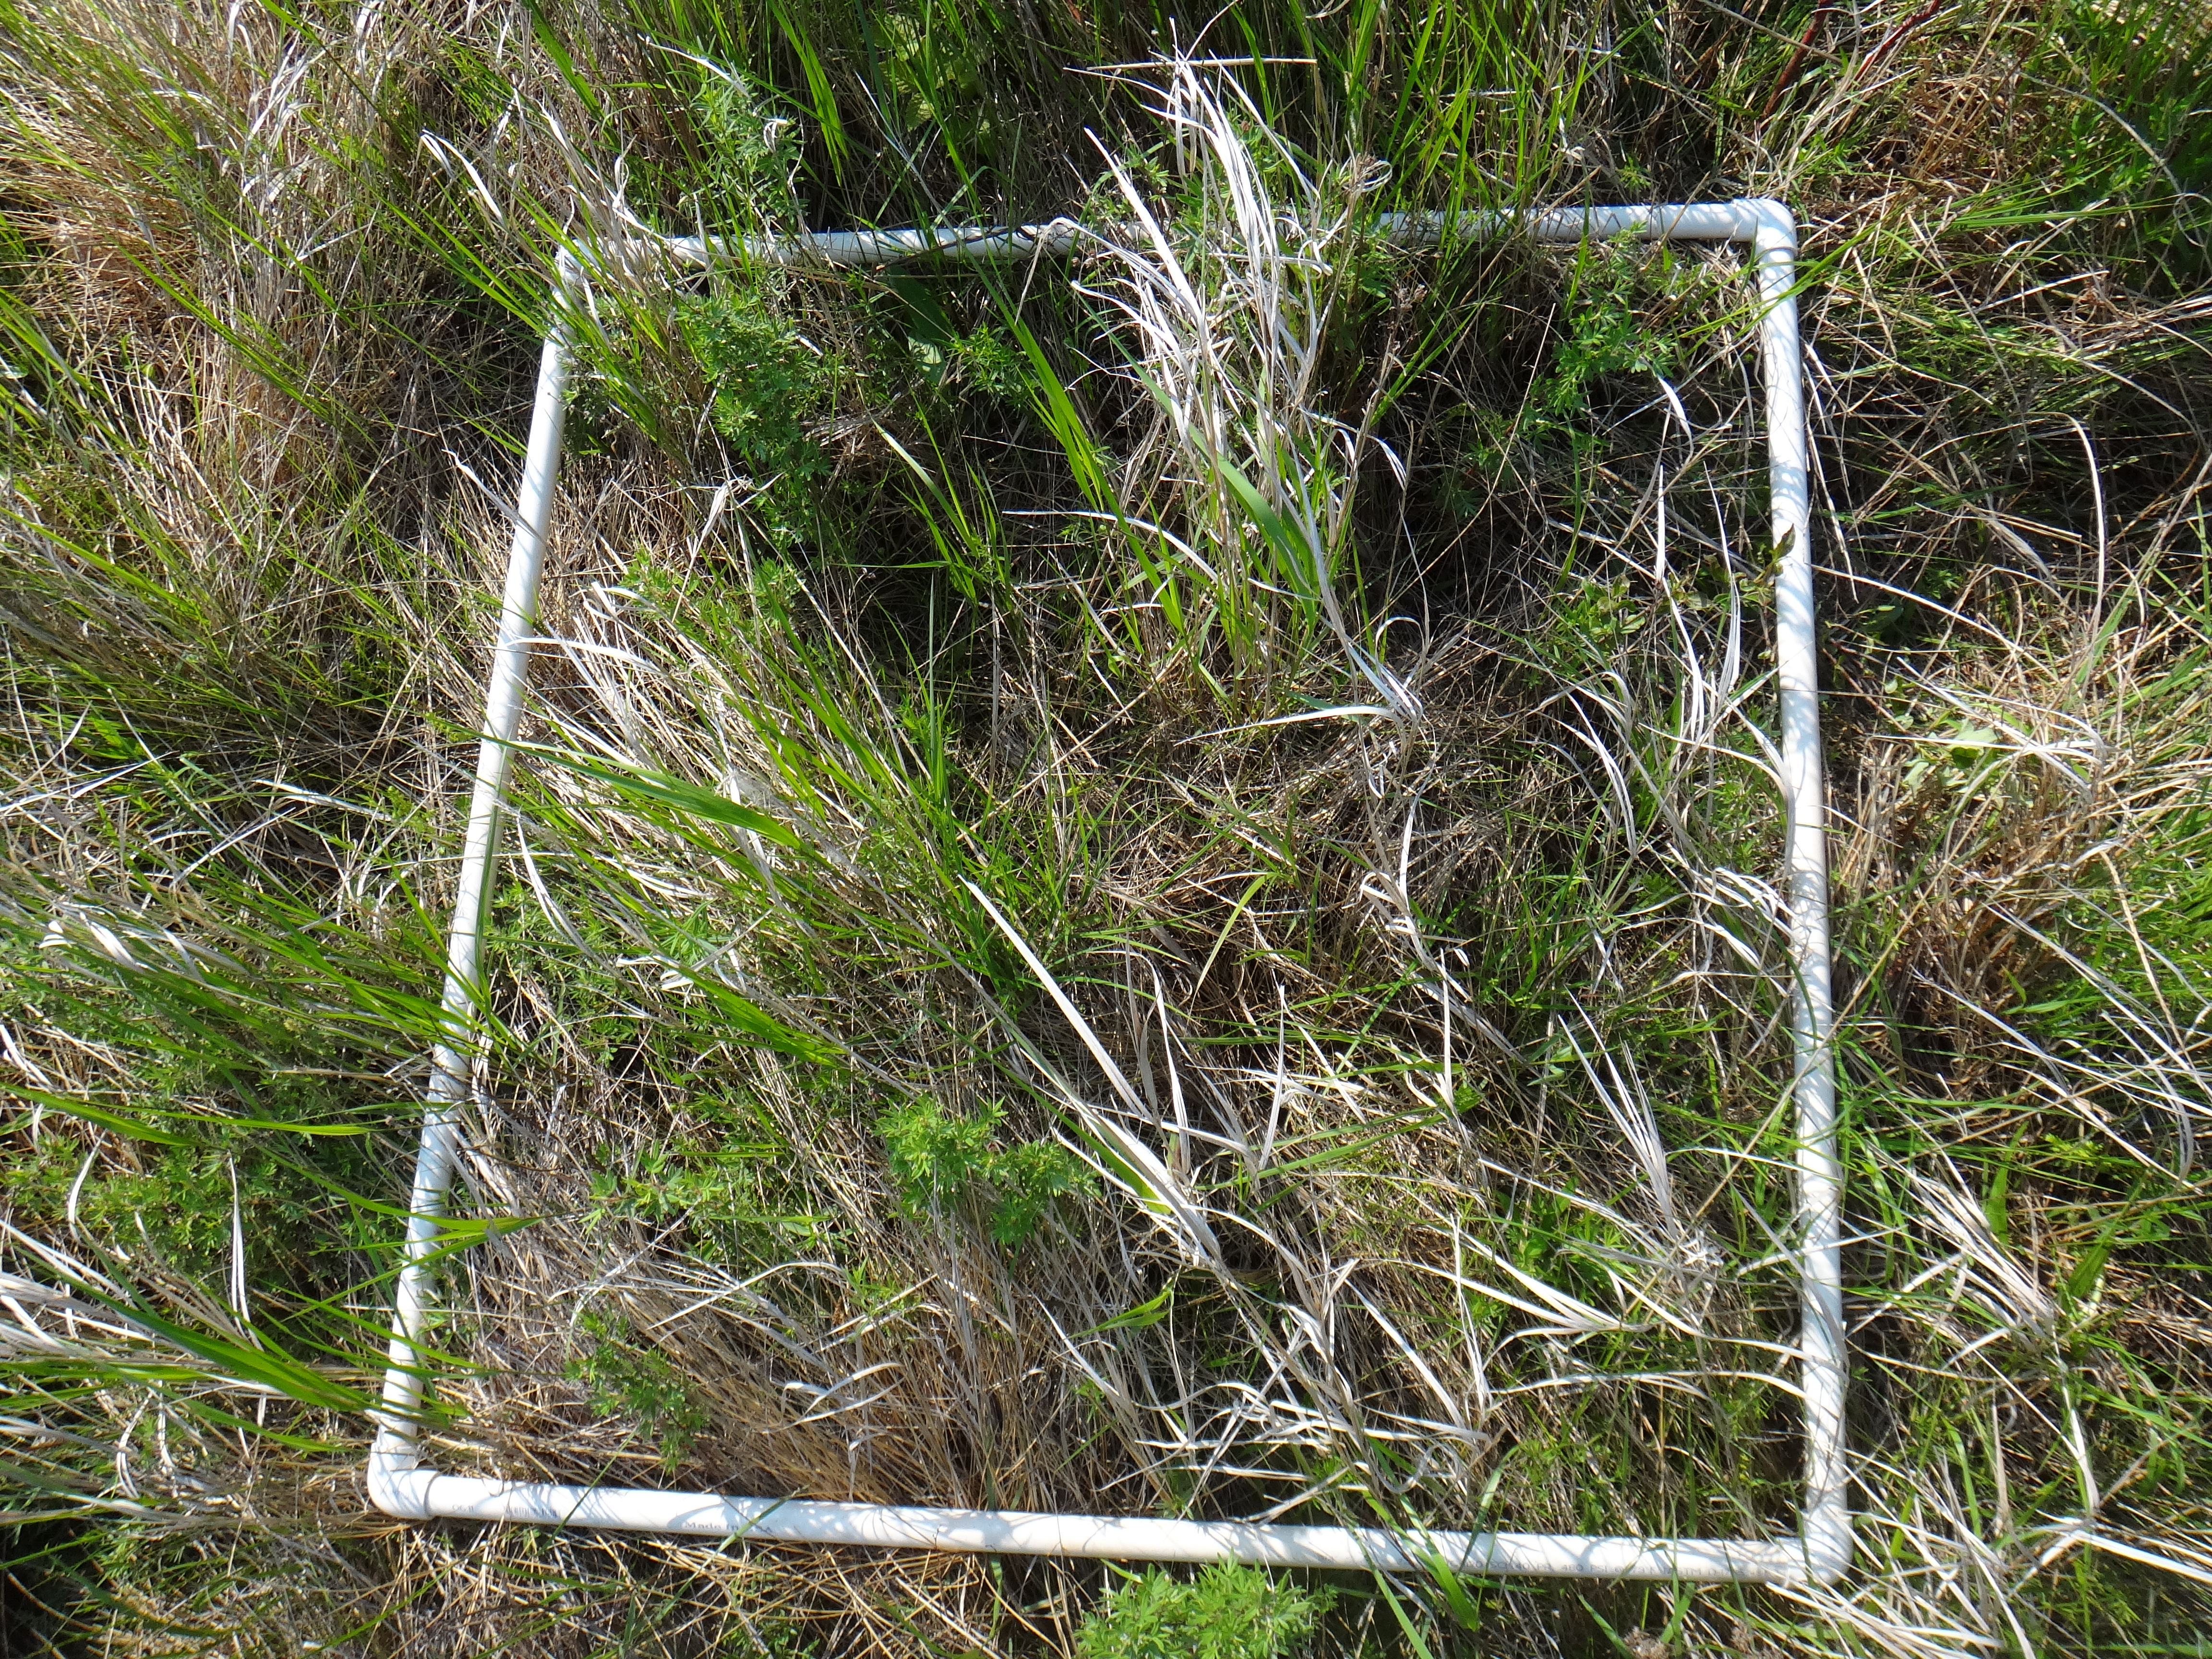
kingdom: Plantae
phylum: Tracheophyta
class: Magnoliopsida
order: Asterales
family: Asteraceae
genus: Solidago
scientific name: Solidago patula
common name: Rough-leaf goldenrod
